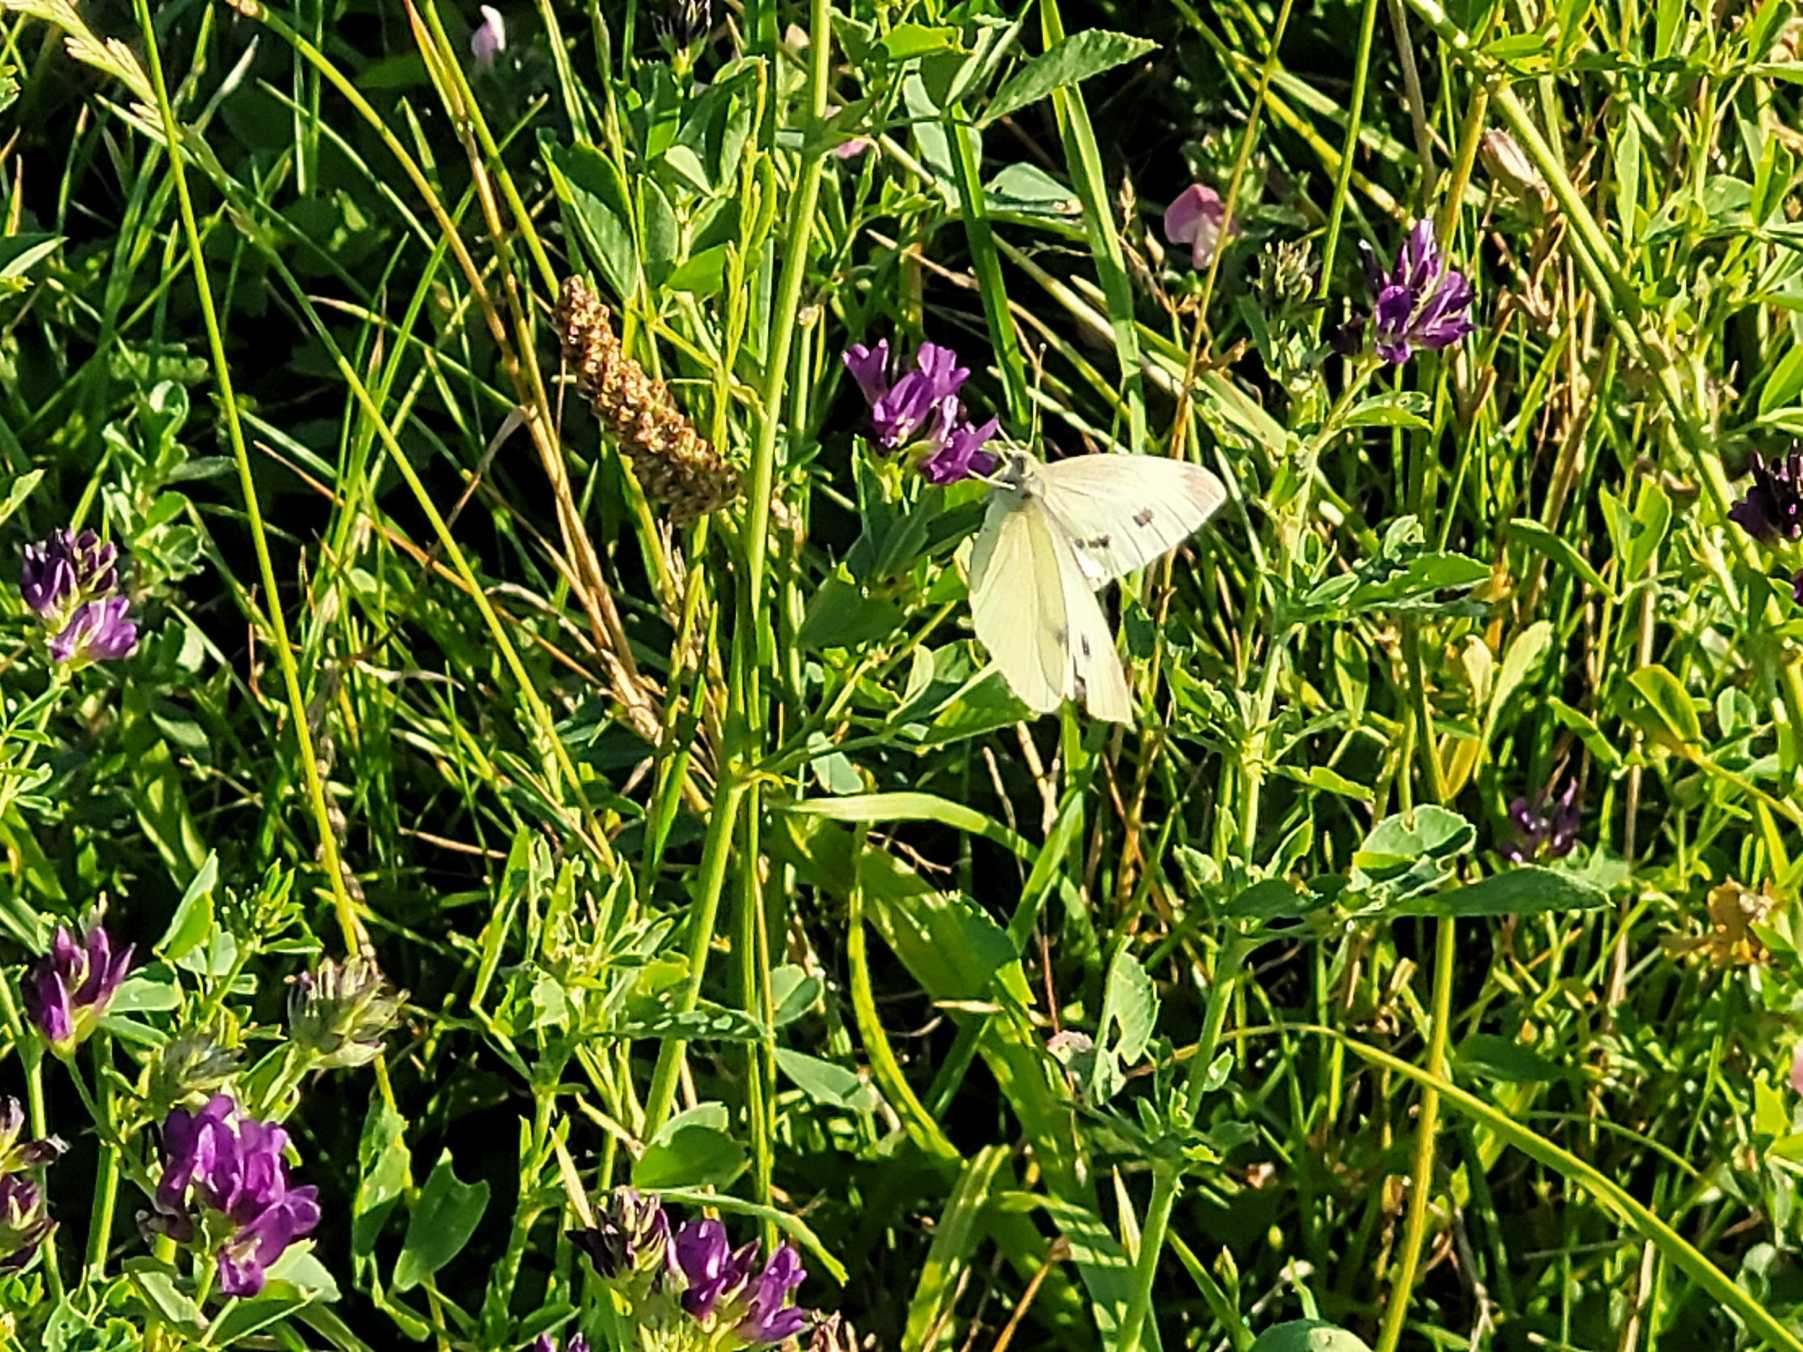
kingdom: Animalia
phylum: Arthropoda
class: Insecta
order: Lepidoptera
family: Pieridae
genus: Pieris
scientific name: Pieris rapae
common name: Lille kålsommerfugl
